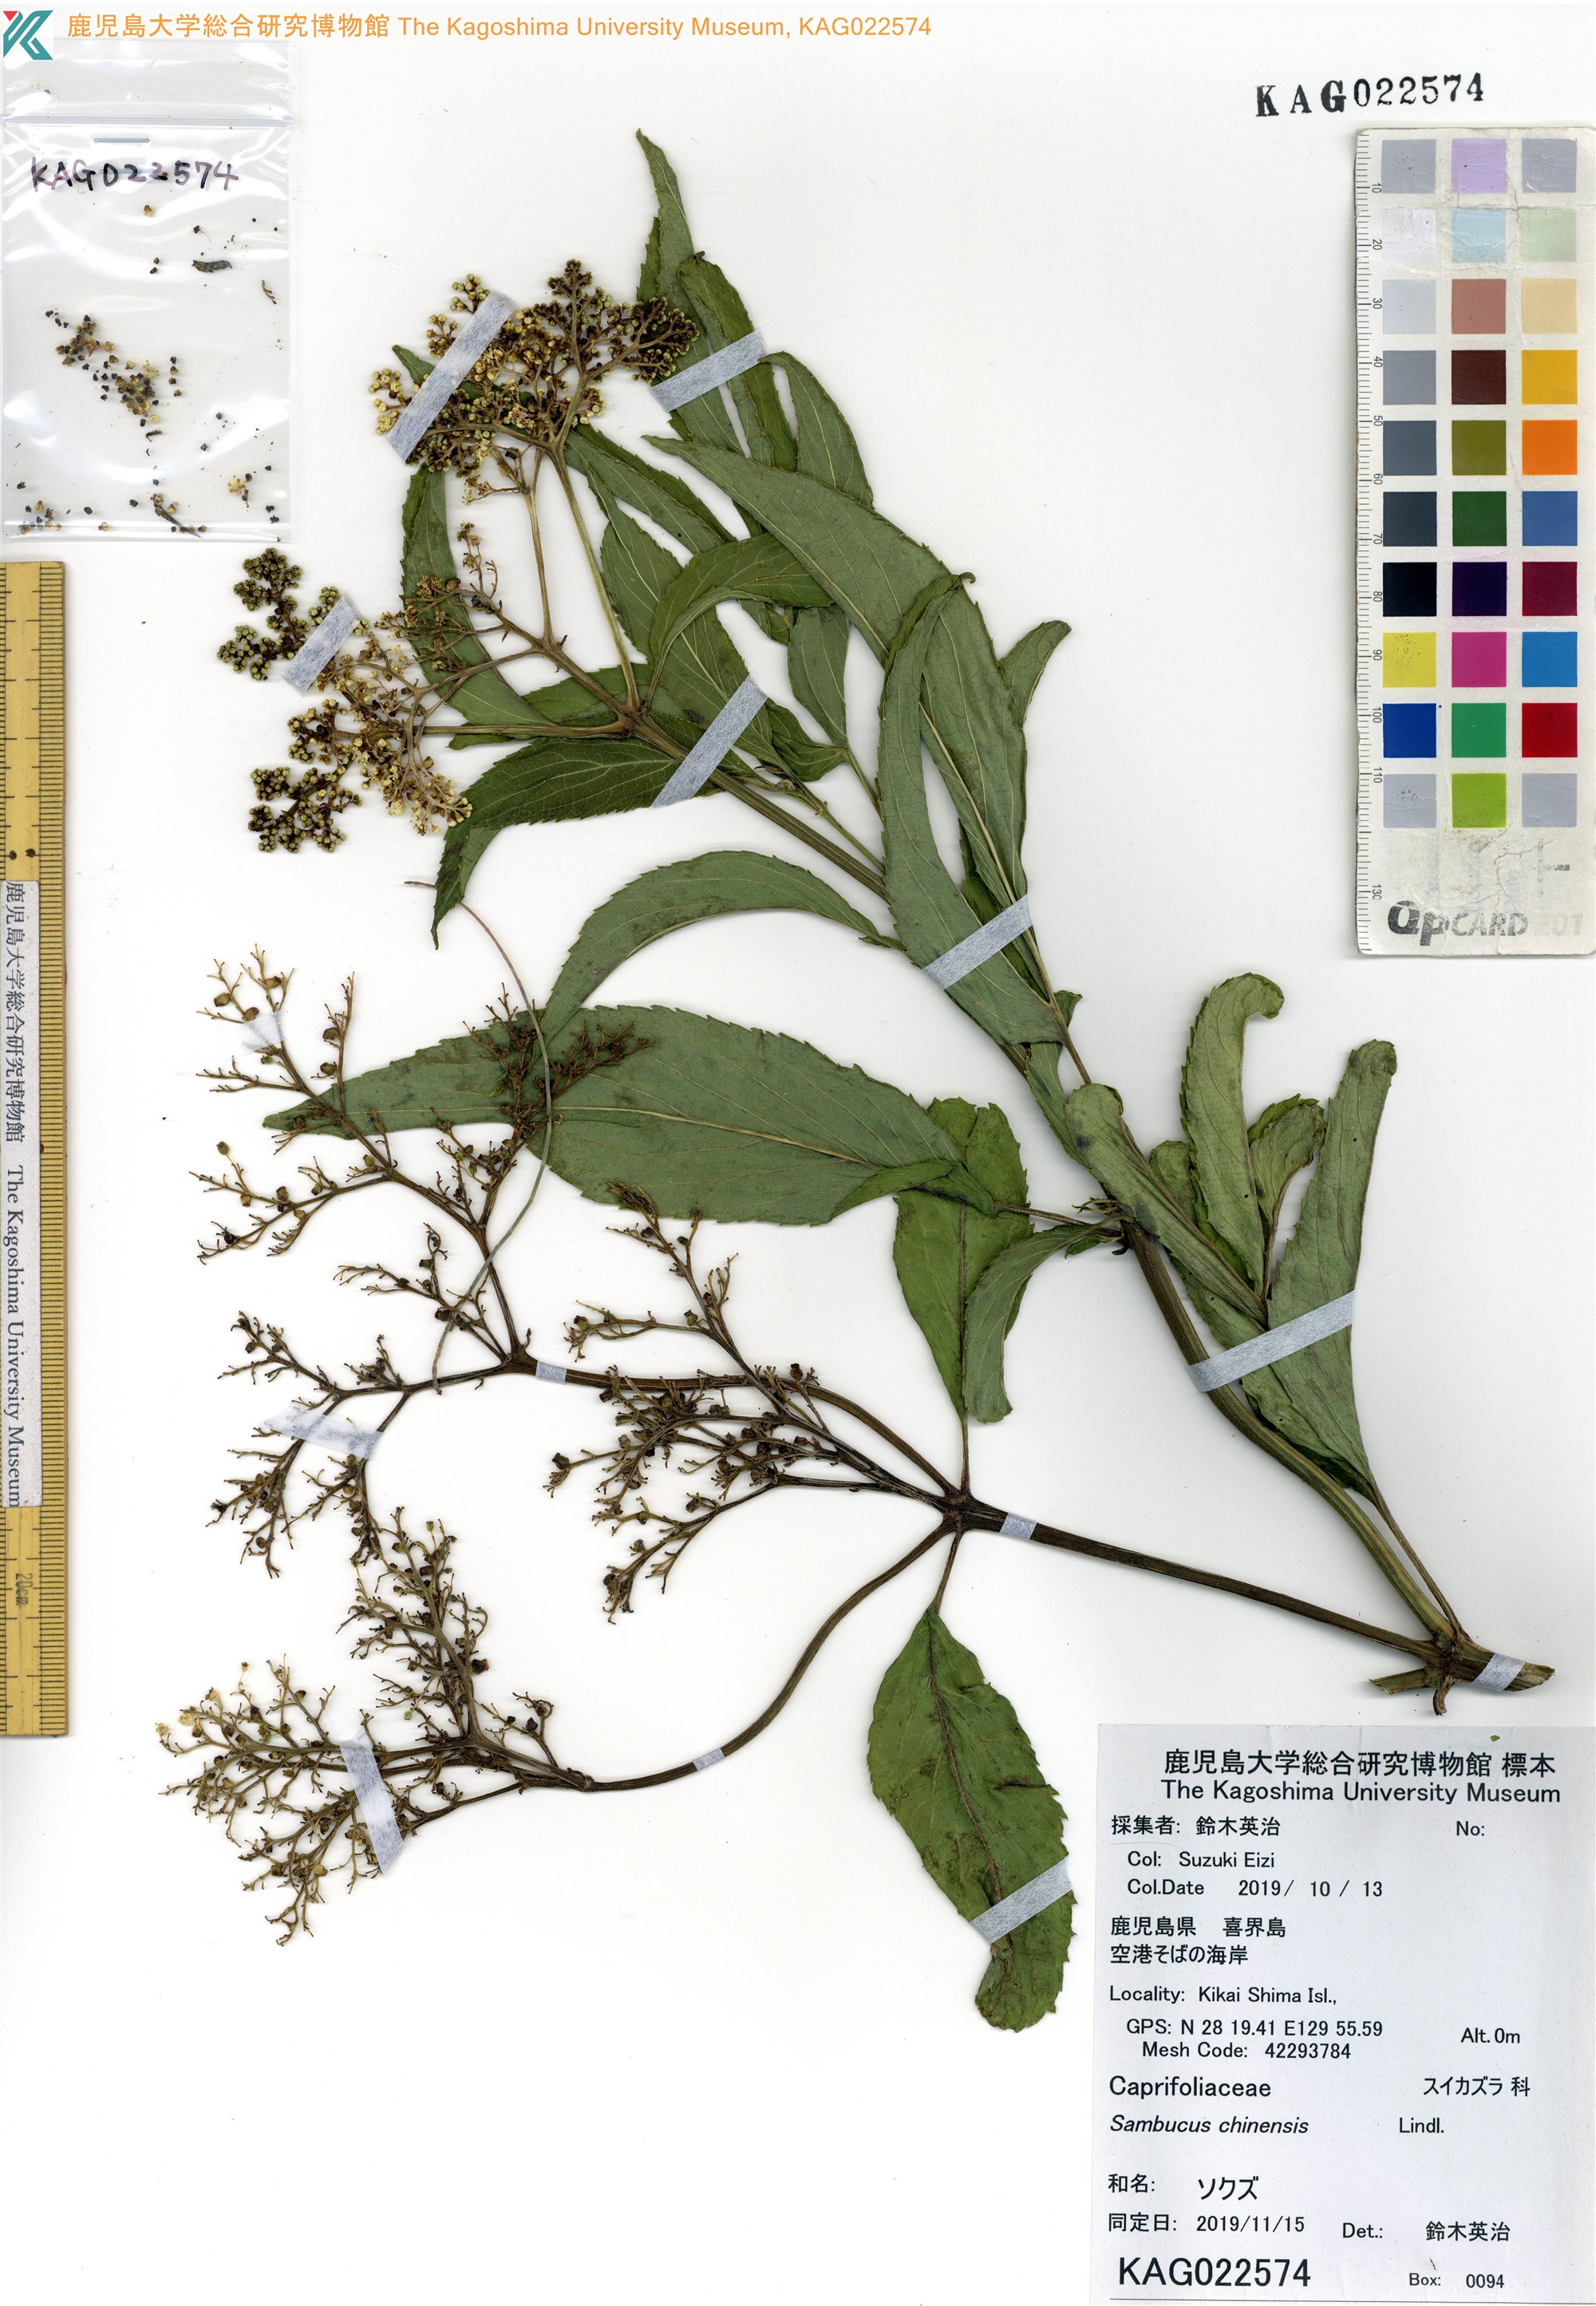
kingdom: Plantae
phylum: Tracheophyta
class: Magnoliopsida
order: Dipsacales
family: Viburnaceae
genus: Sambucus
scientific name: Sambucus javanica
